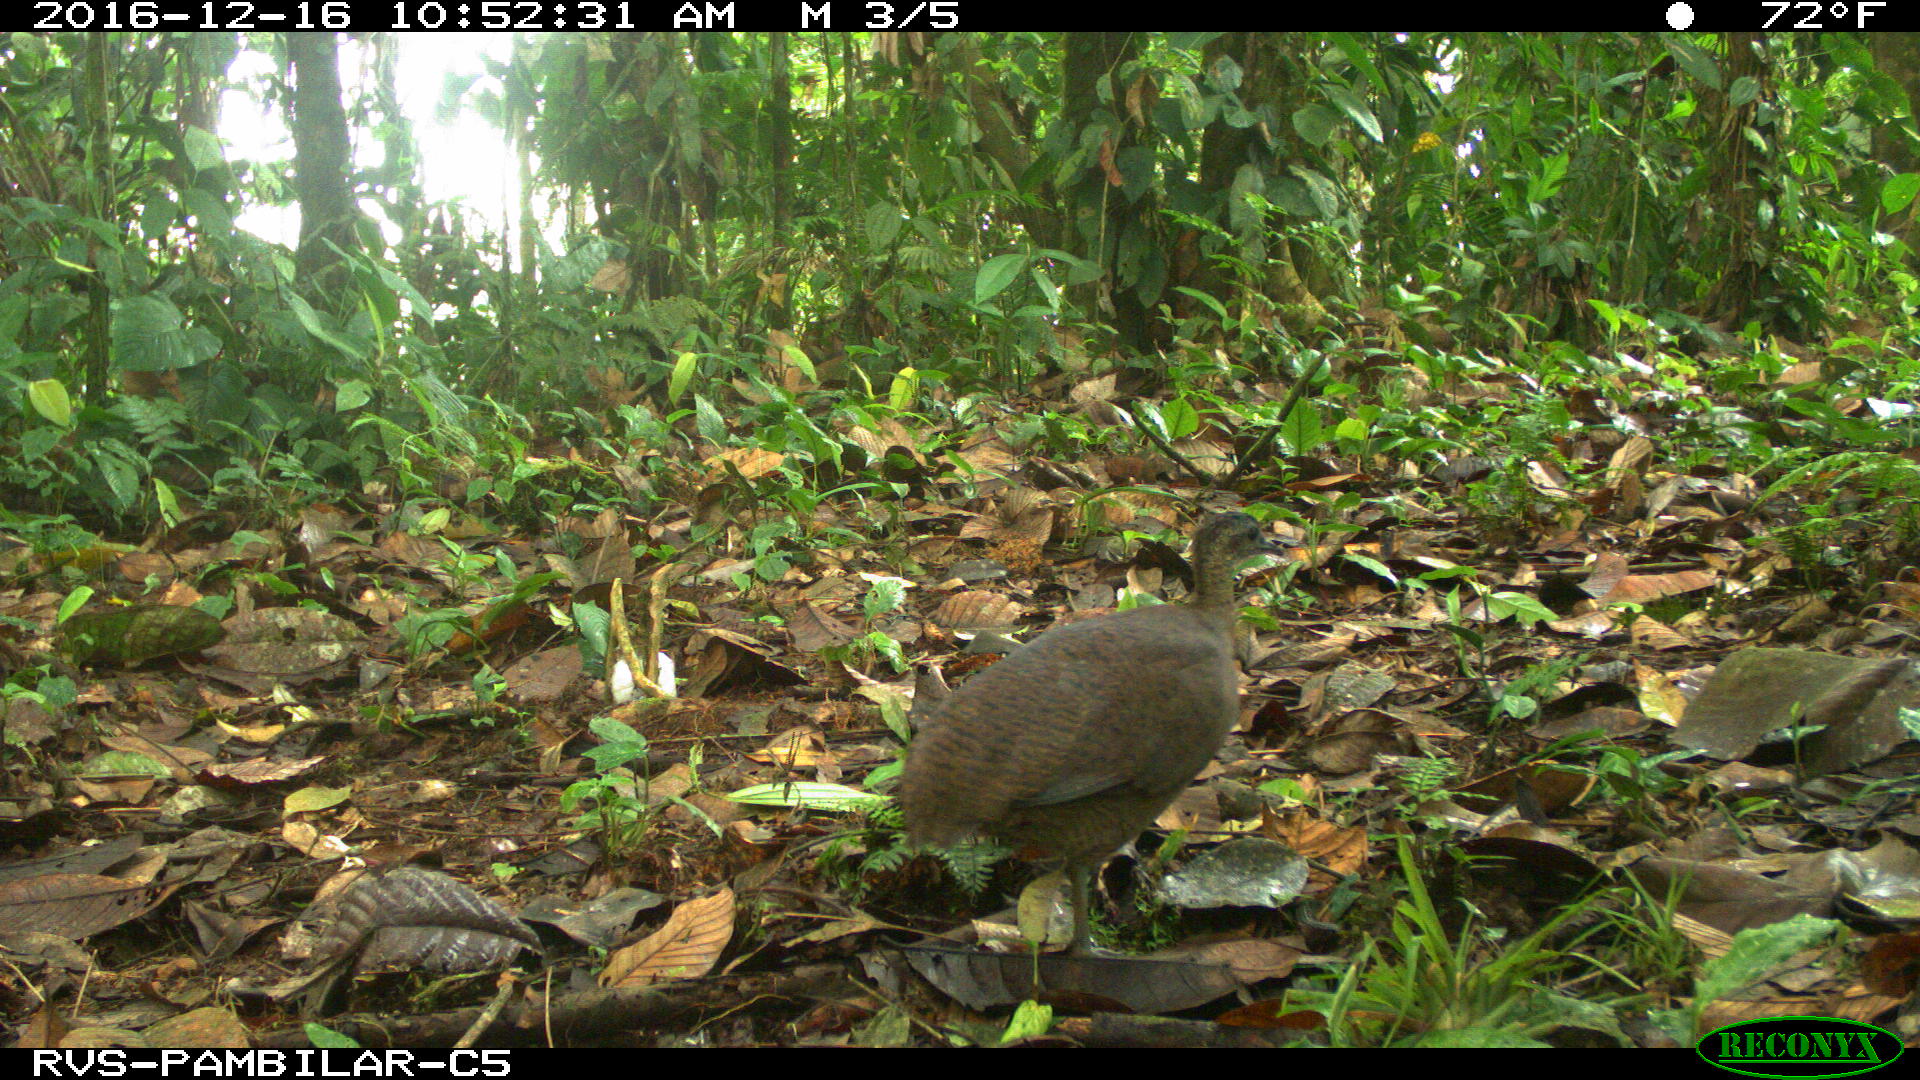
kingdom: Animalia
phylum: Chordata
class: Aves
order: Tinamiformes
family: Tinamidae
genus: Tinamus
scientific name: Tinamus major
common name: Great tinamou
